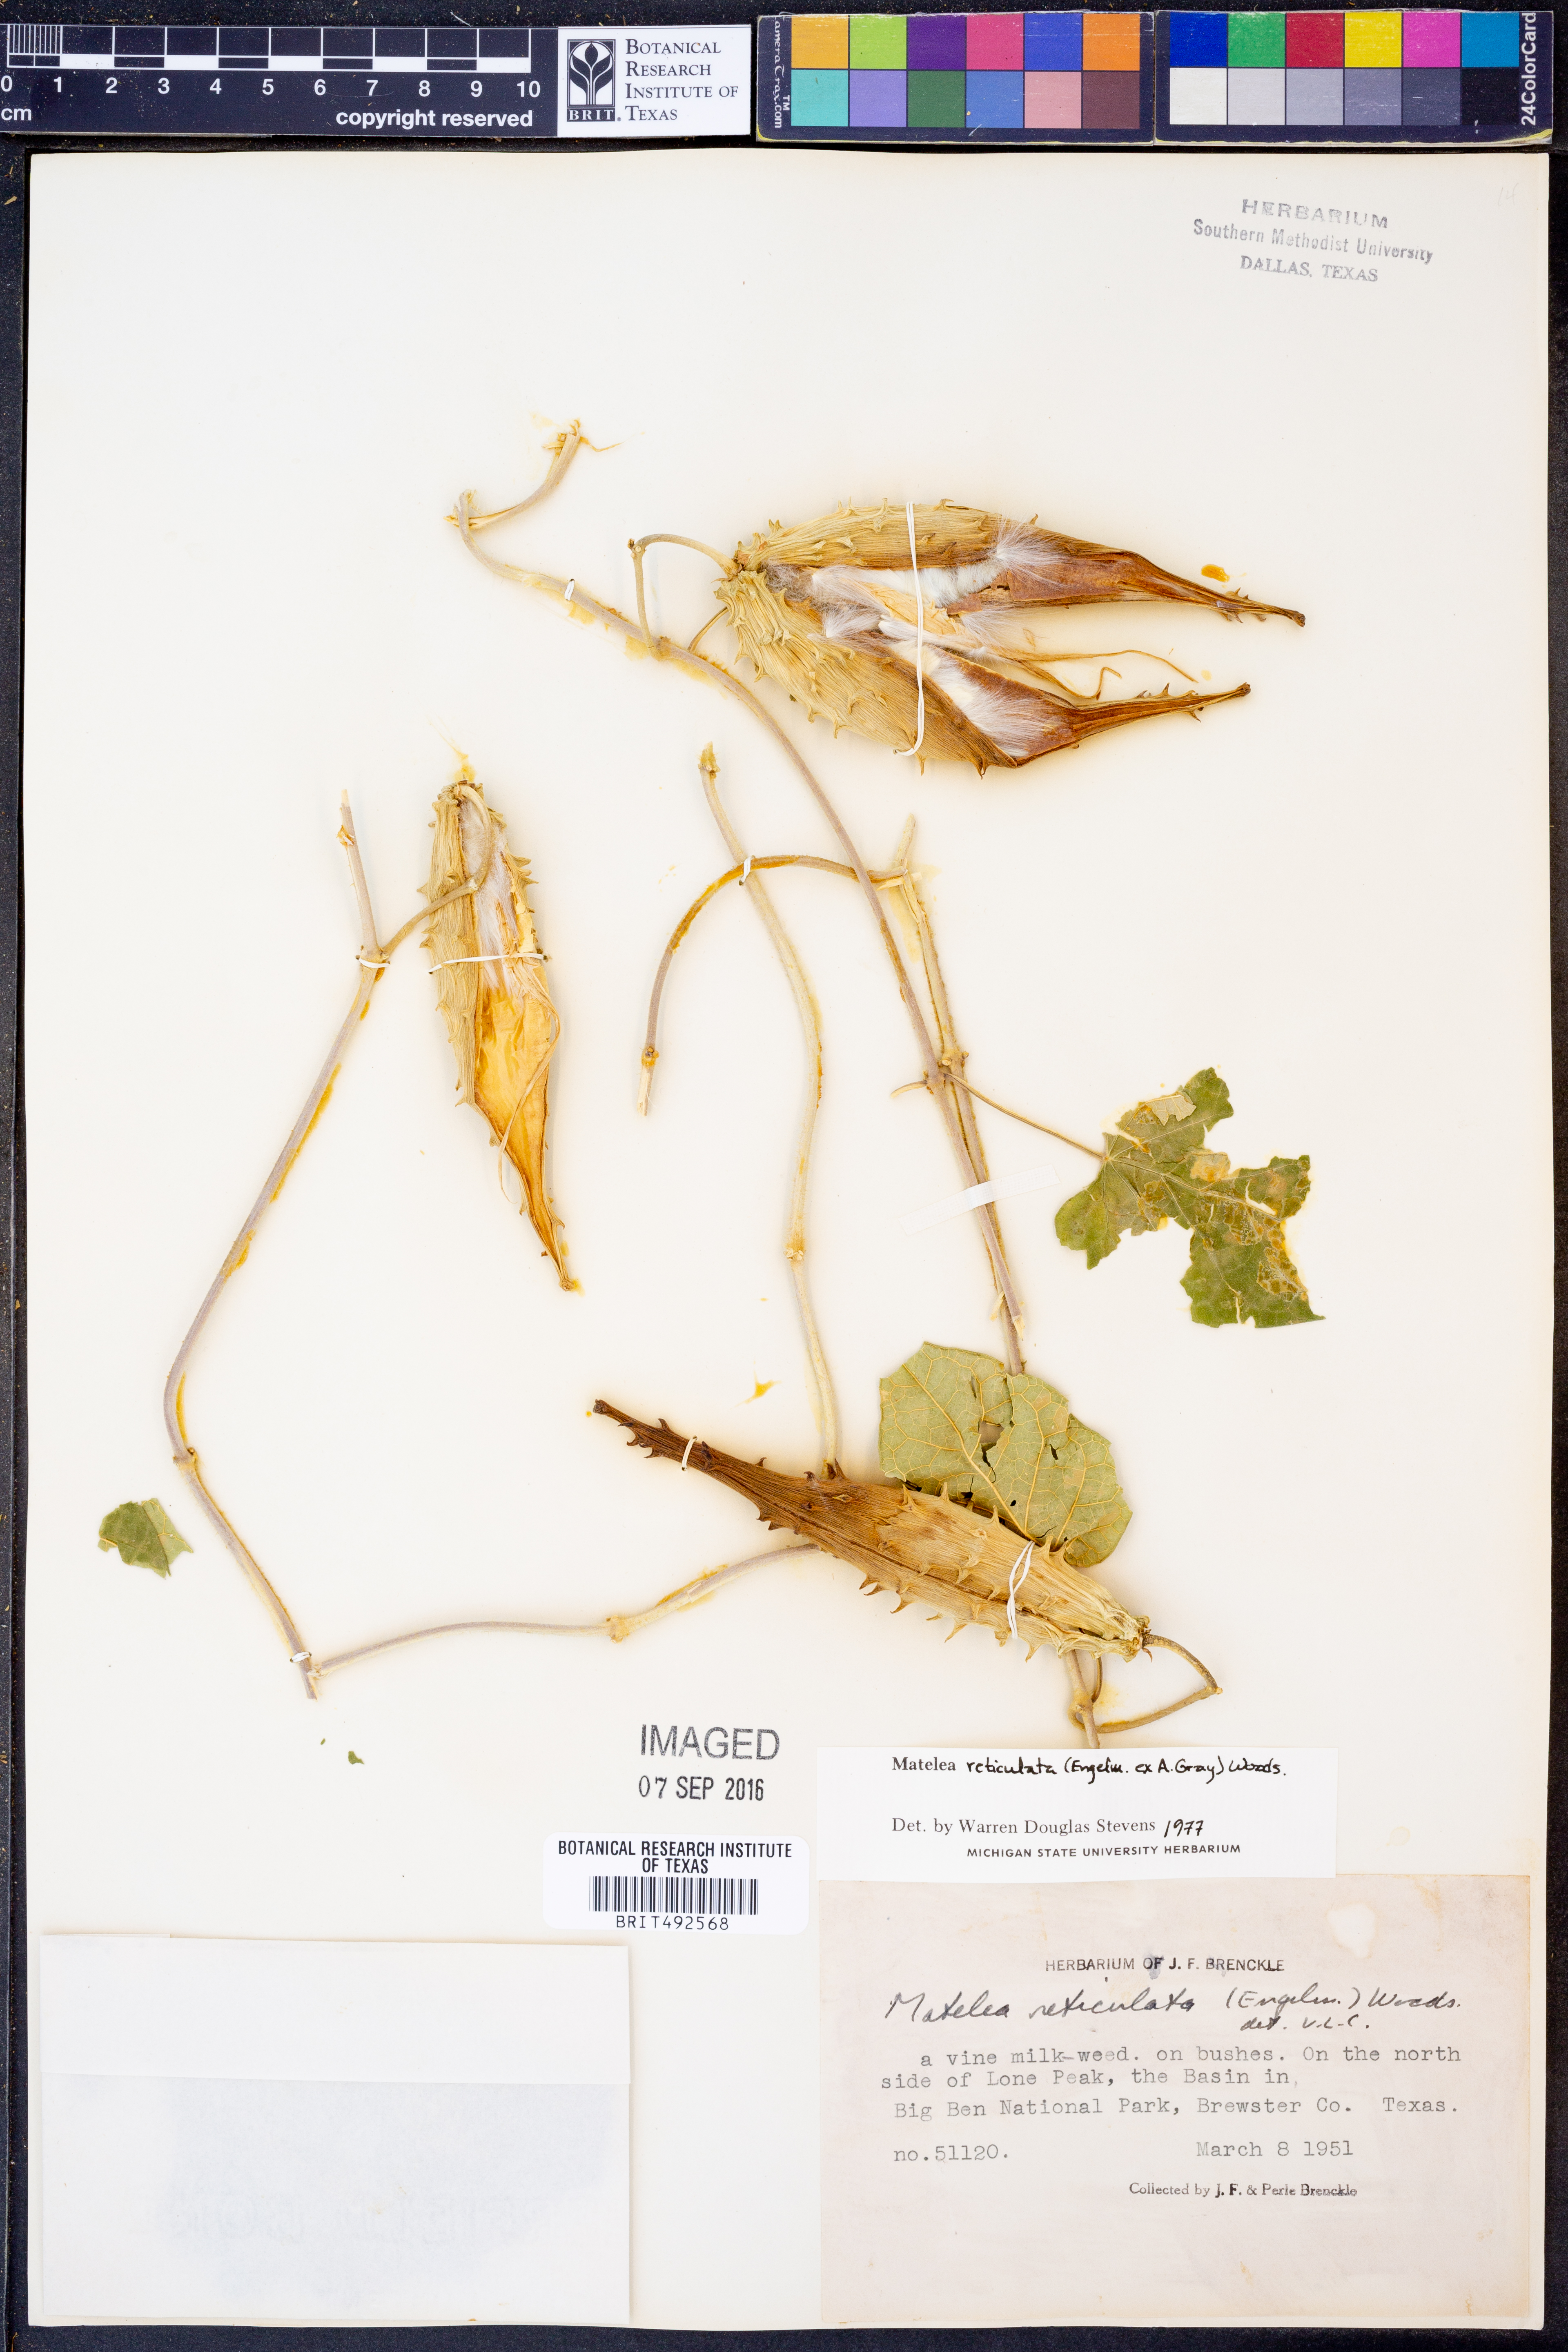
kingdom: Plantae
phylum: Tracheophyta
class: Magnoliopsida
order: Gentianales
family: Apocynaceae
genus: Dictyanthus
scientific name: Dictyanthus reticulatus
